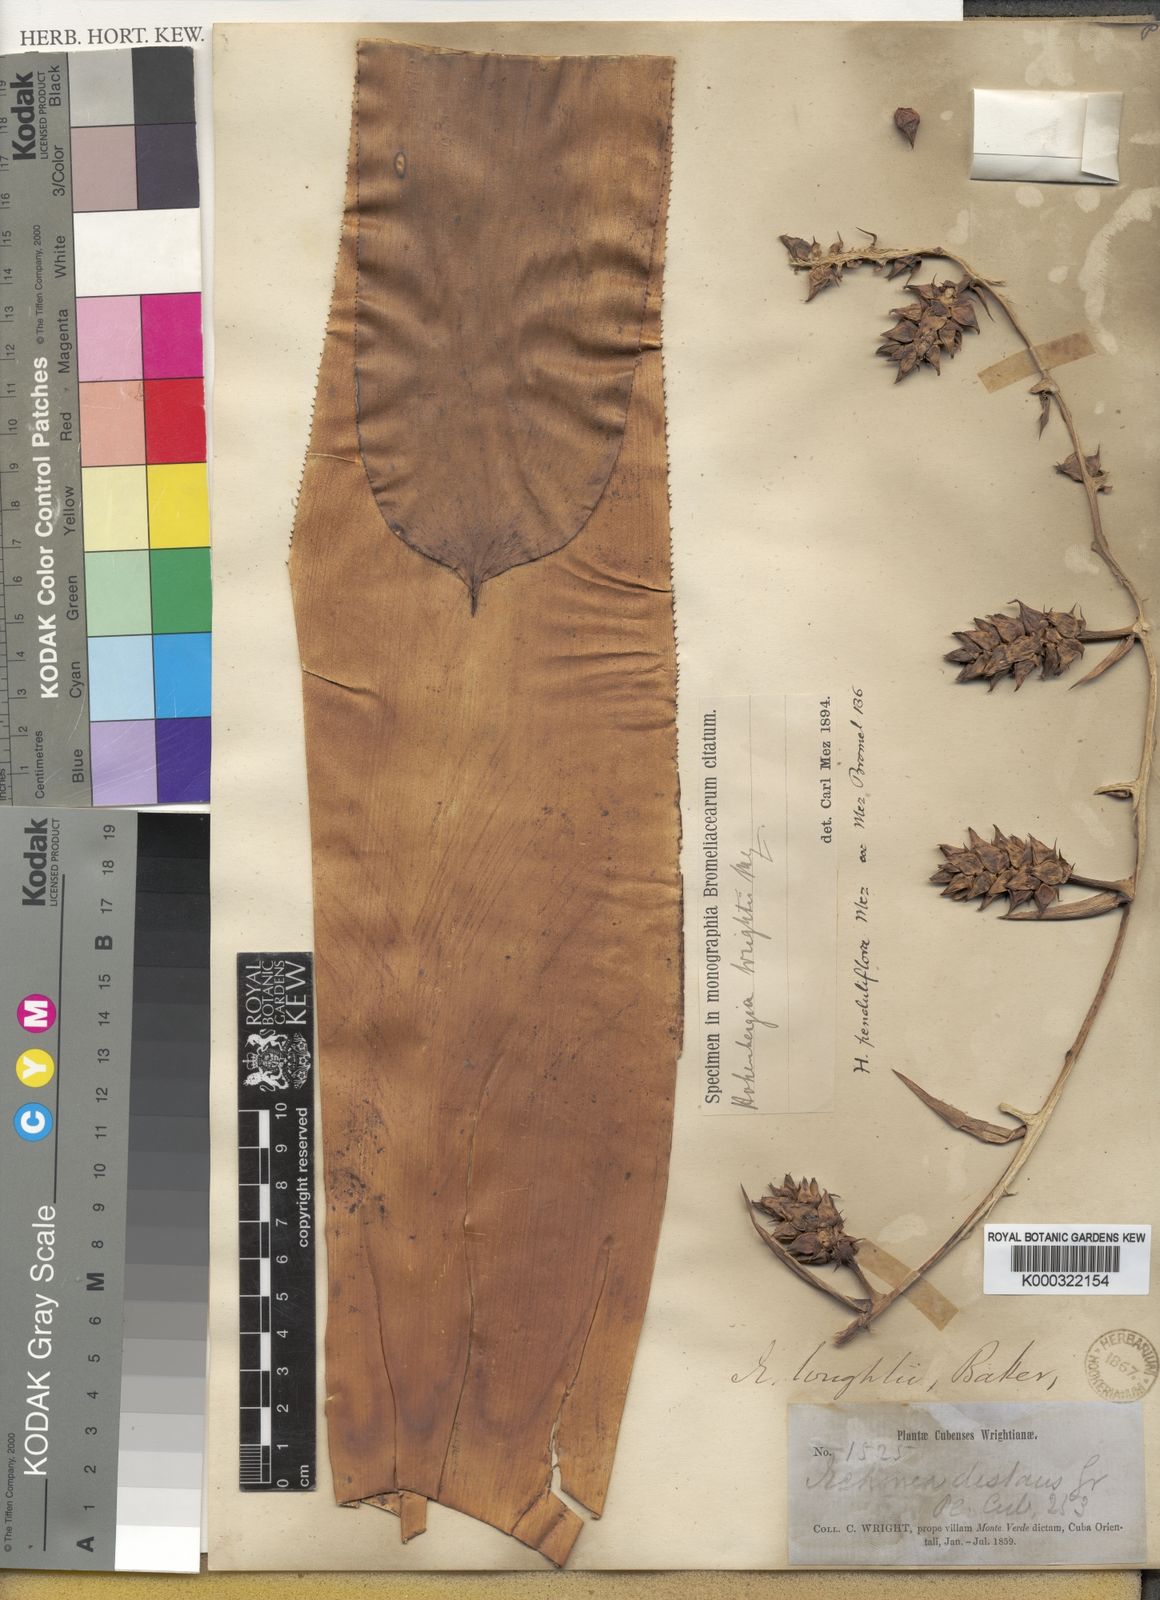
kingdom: Plantae
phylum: Tracheophyta
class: Liliopsida
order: Poales
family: Bromeliaceae
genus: Wittmackia
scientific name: Wittmackia penduliflora
